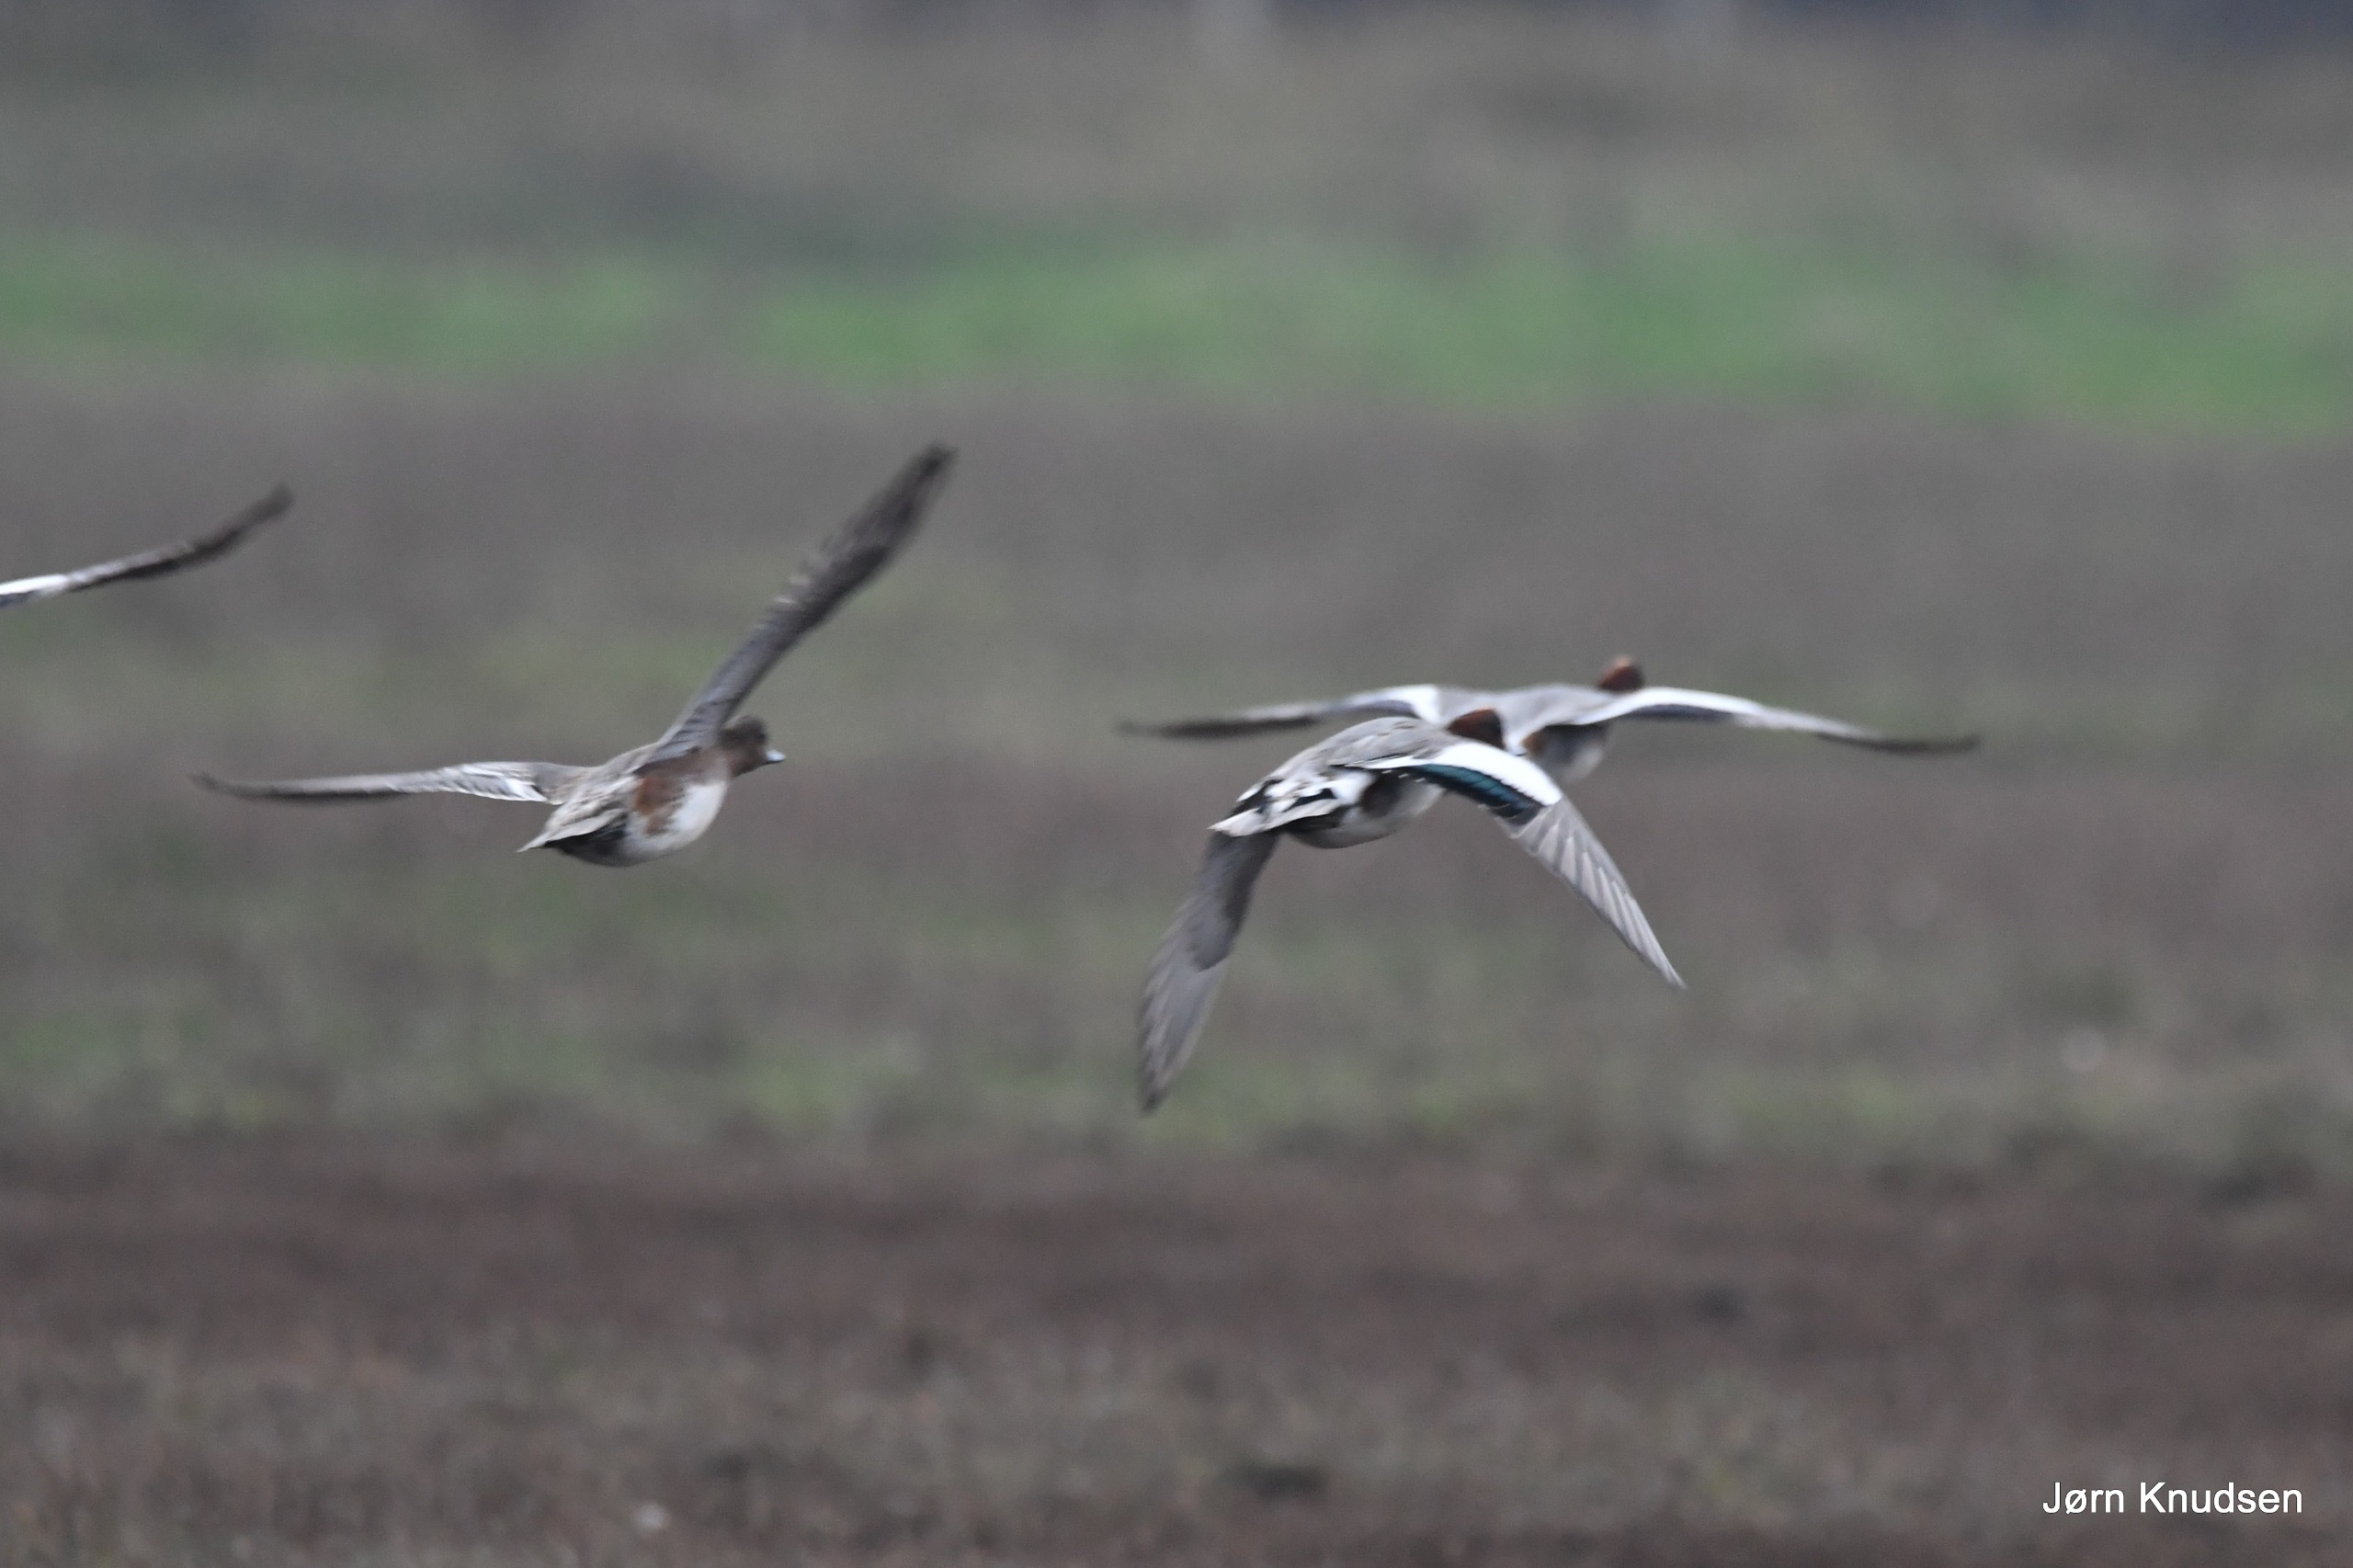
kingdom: Animalia
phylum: Chordata
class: Aves
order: Anseriformes
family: Anatidae
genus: Mareca
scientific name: Mareca penelope
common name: Pibeand
